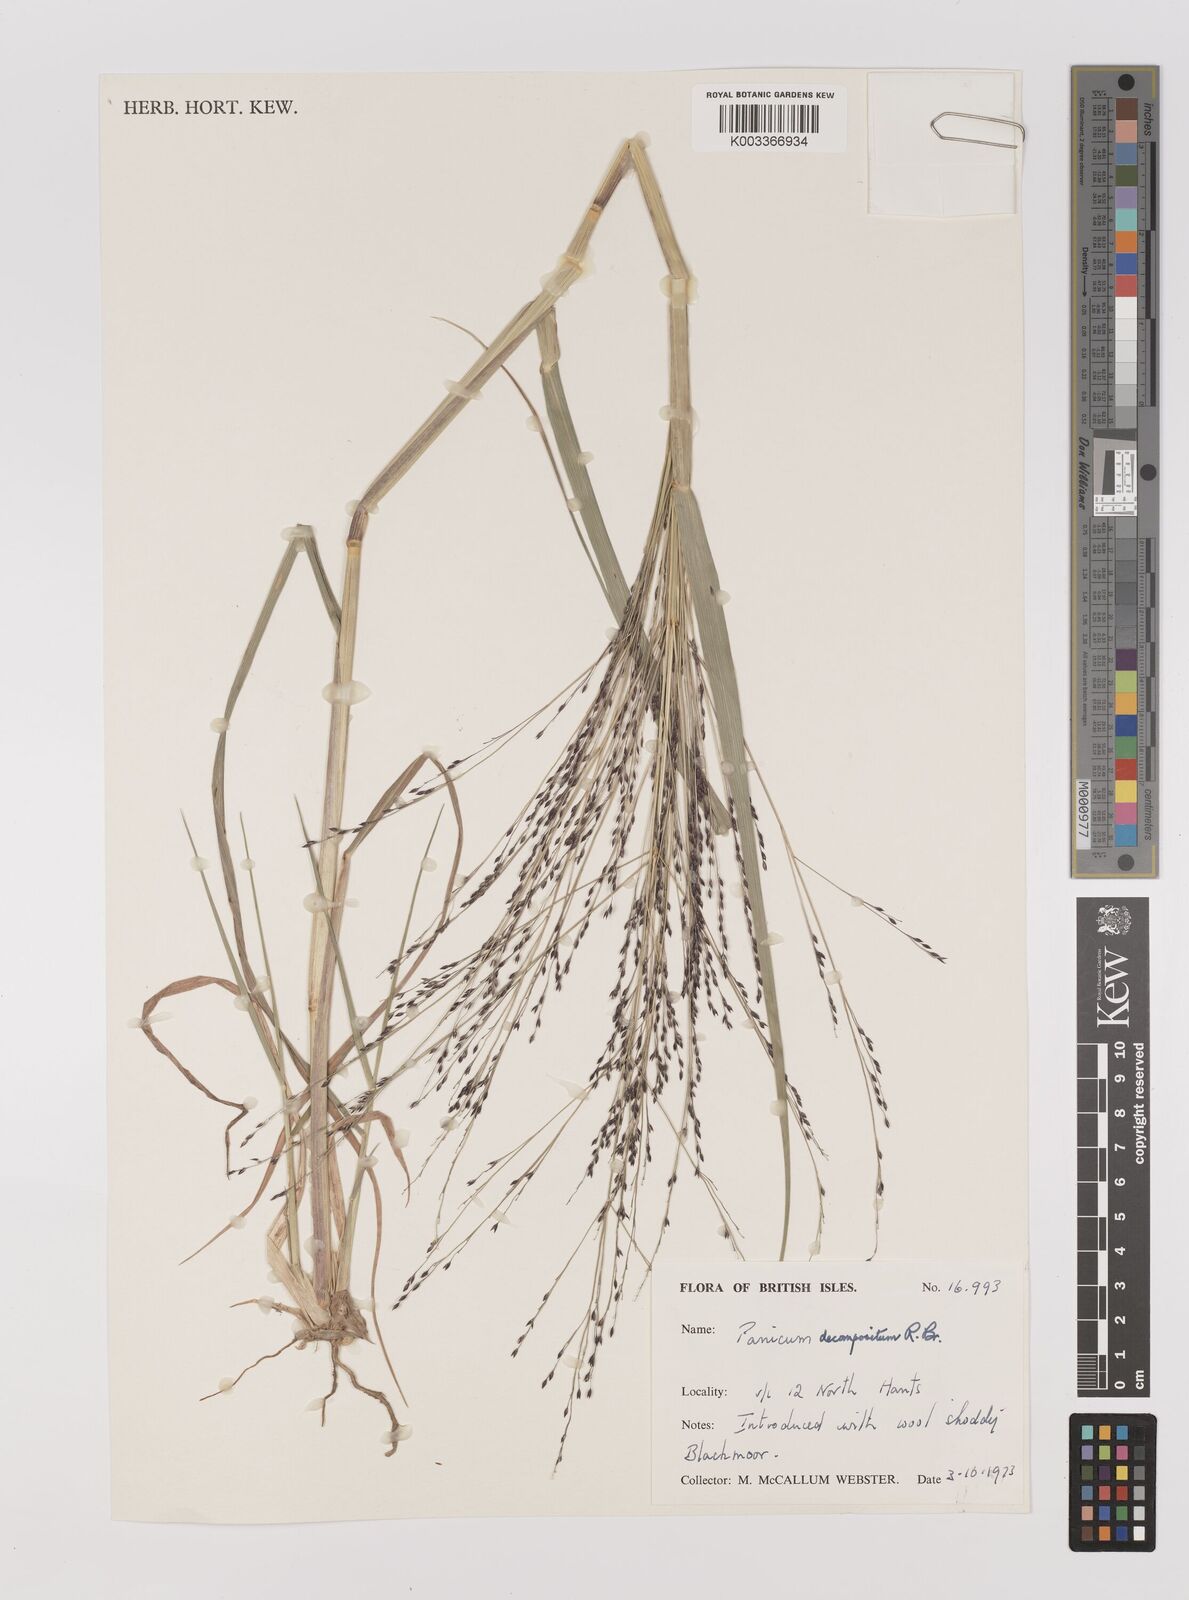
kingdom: Plantae
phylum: Tracheophyta
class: Liliopsida
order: Poales
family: Poaceae
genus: Panicum
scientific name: Panicum decompositum
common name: Australian millet
